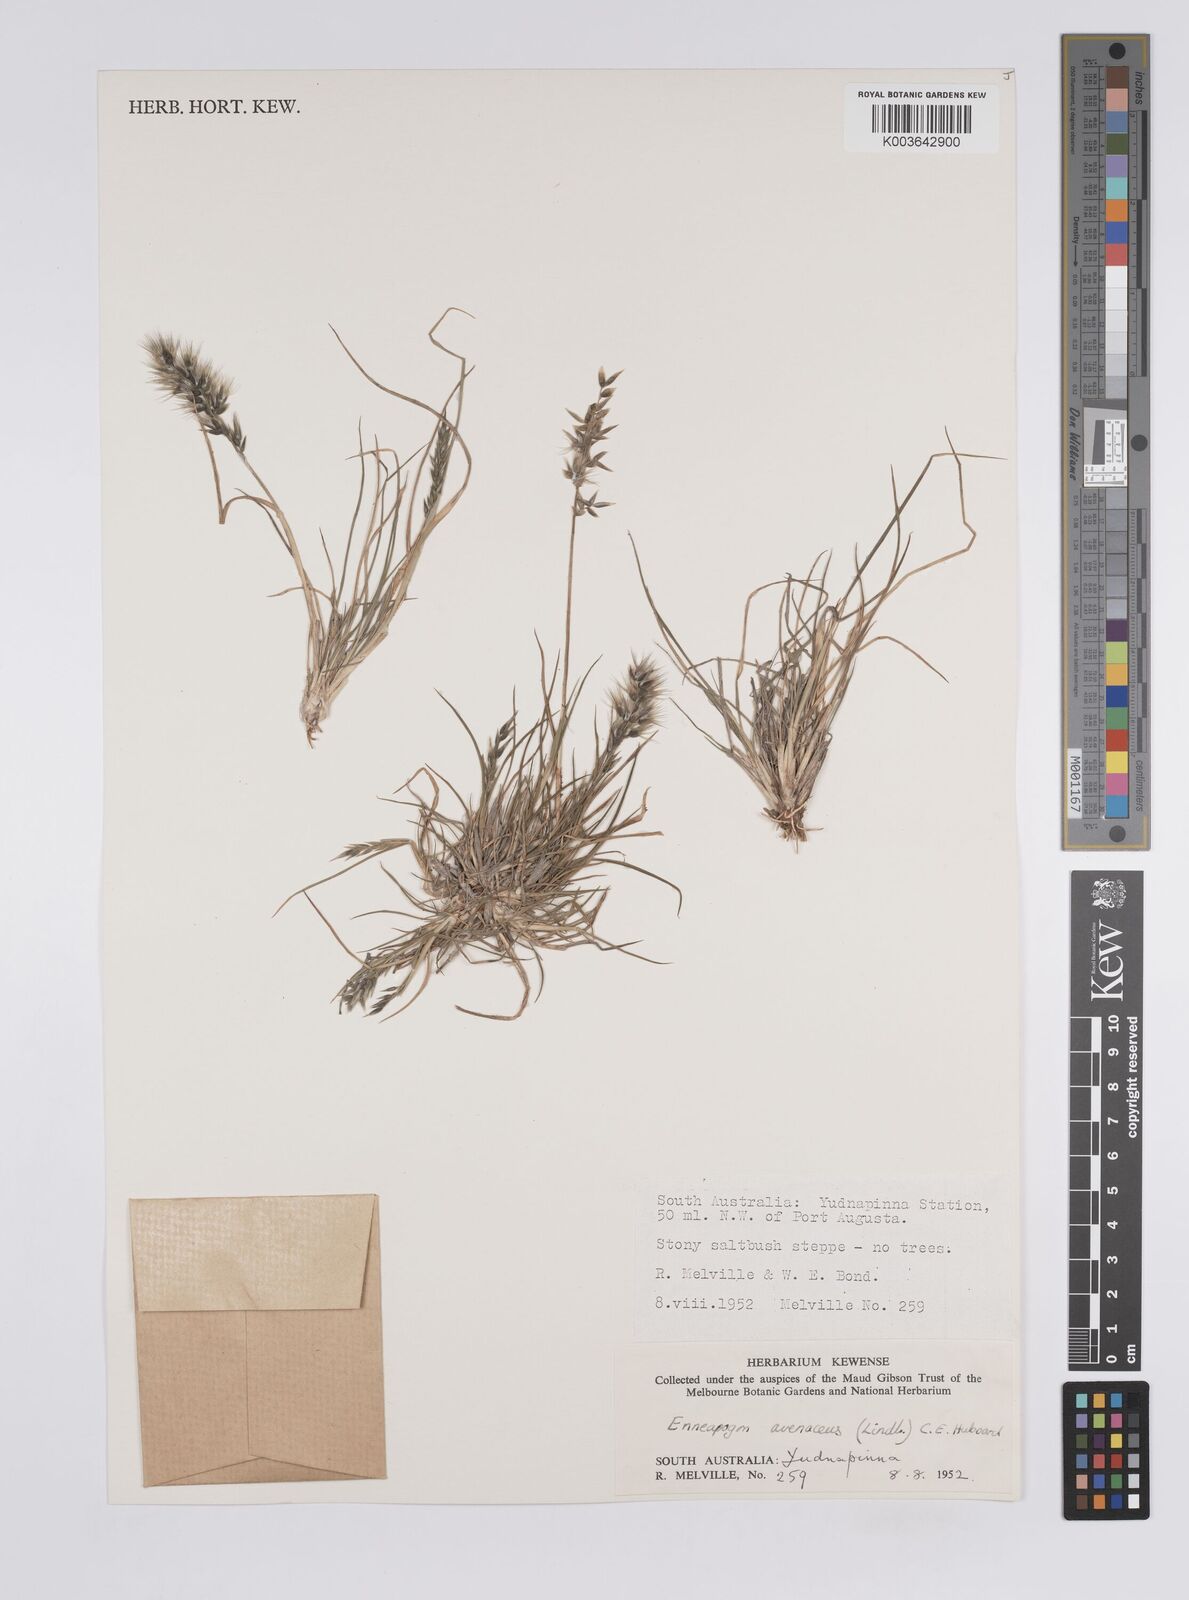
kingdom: Plantae
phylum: Tracheophyta
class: Liliopsida
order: Poales
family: Poaceae
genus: Enneapogon
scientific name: Enneapogon avenaceus
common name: Hairy oat grass
